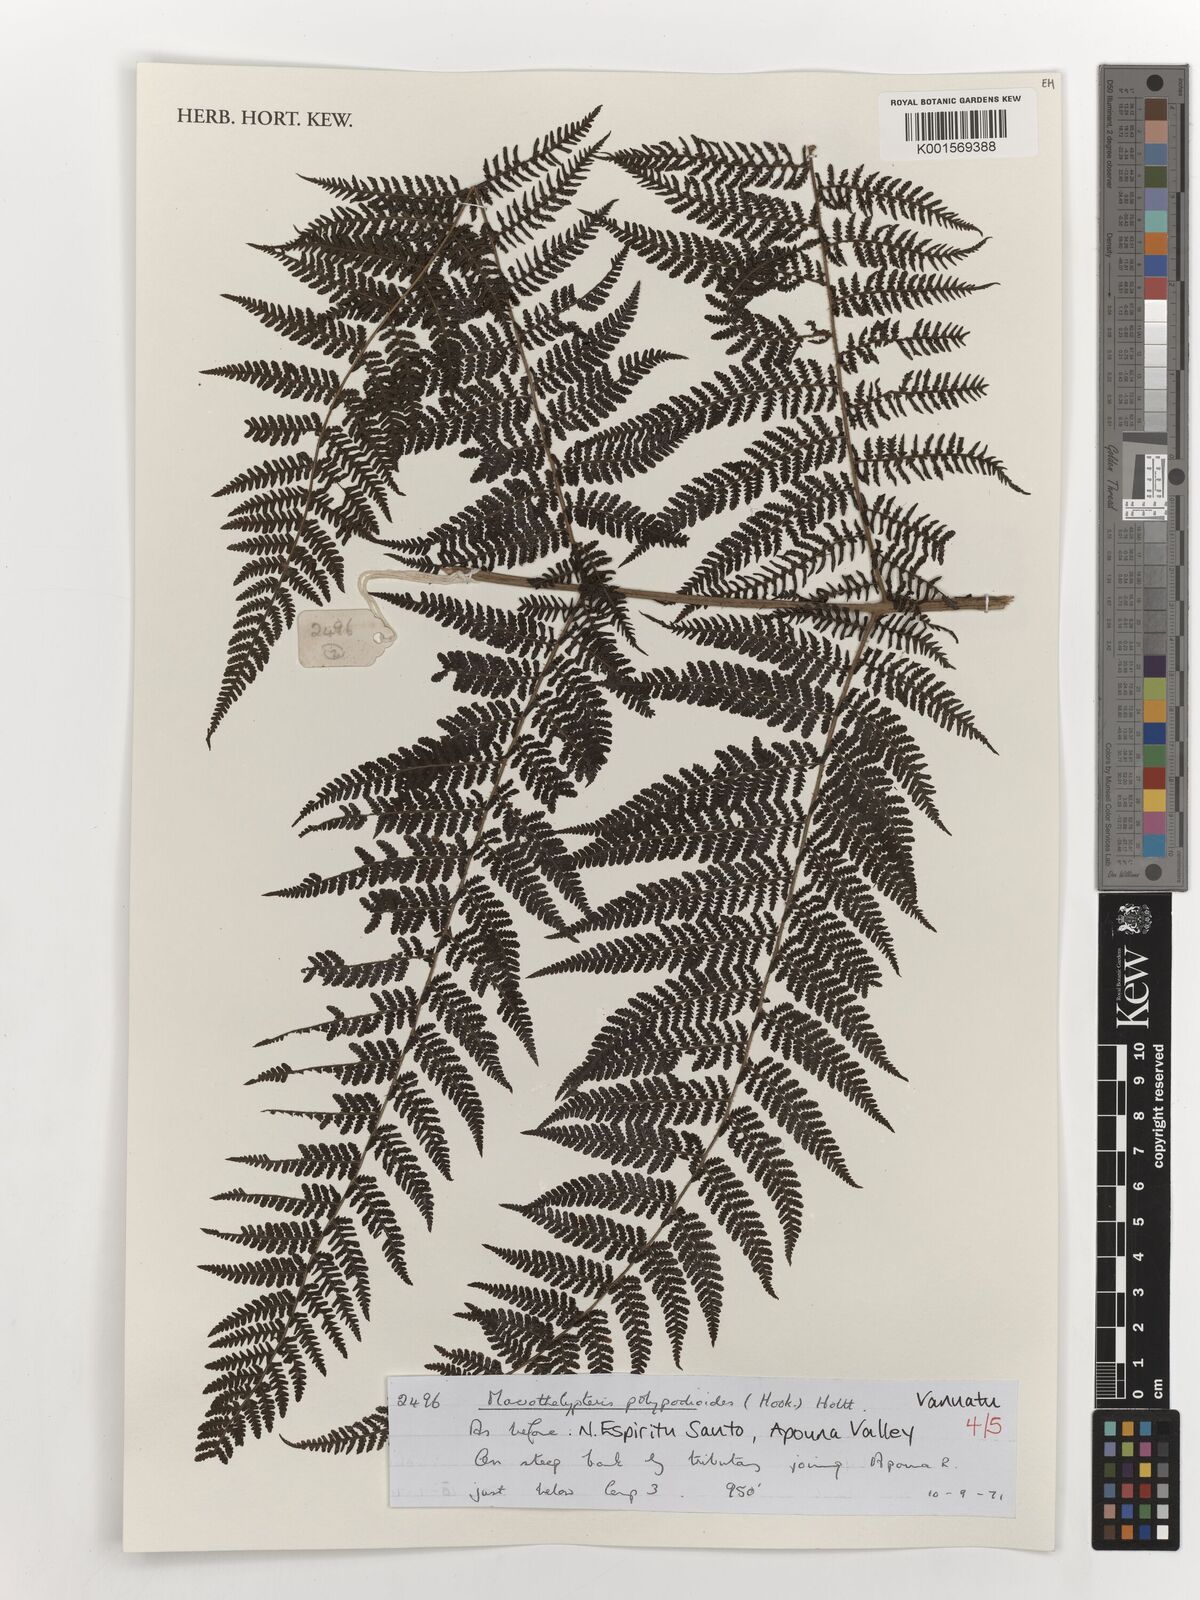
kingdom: Plantae
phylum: Tracheophyta
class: Polypodiopsida
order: Polypodiales
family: Thelypteridaceae
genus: Macrothelypteris
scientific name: Macrothelypteris polypodioides
